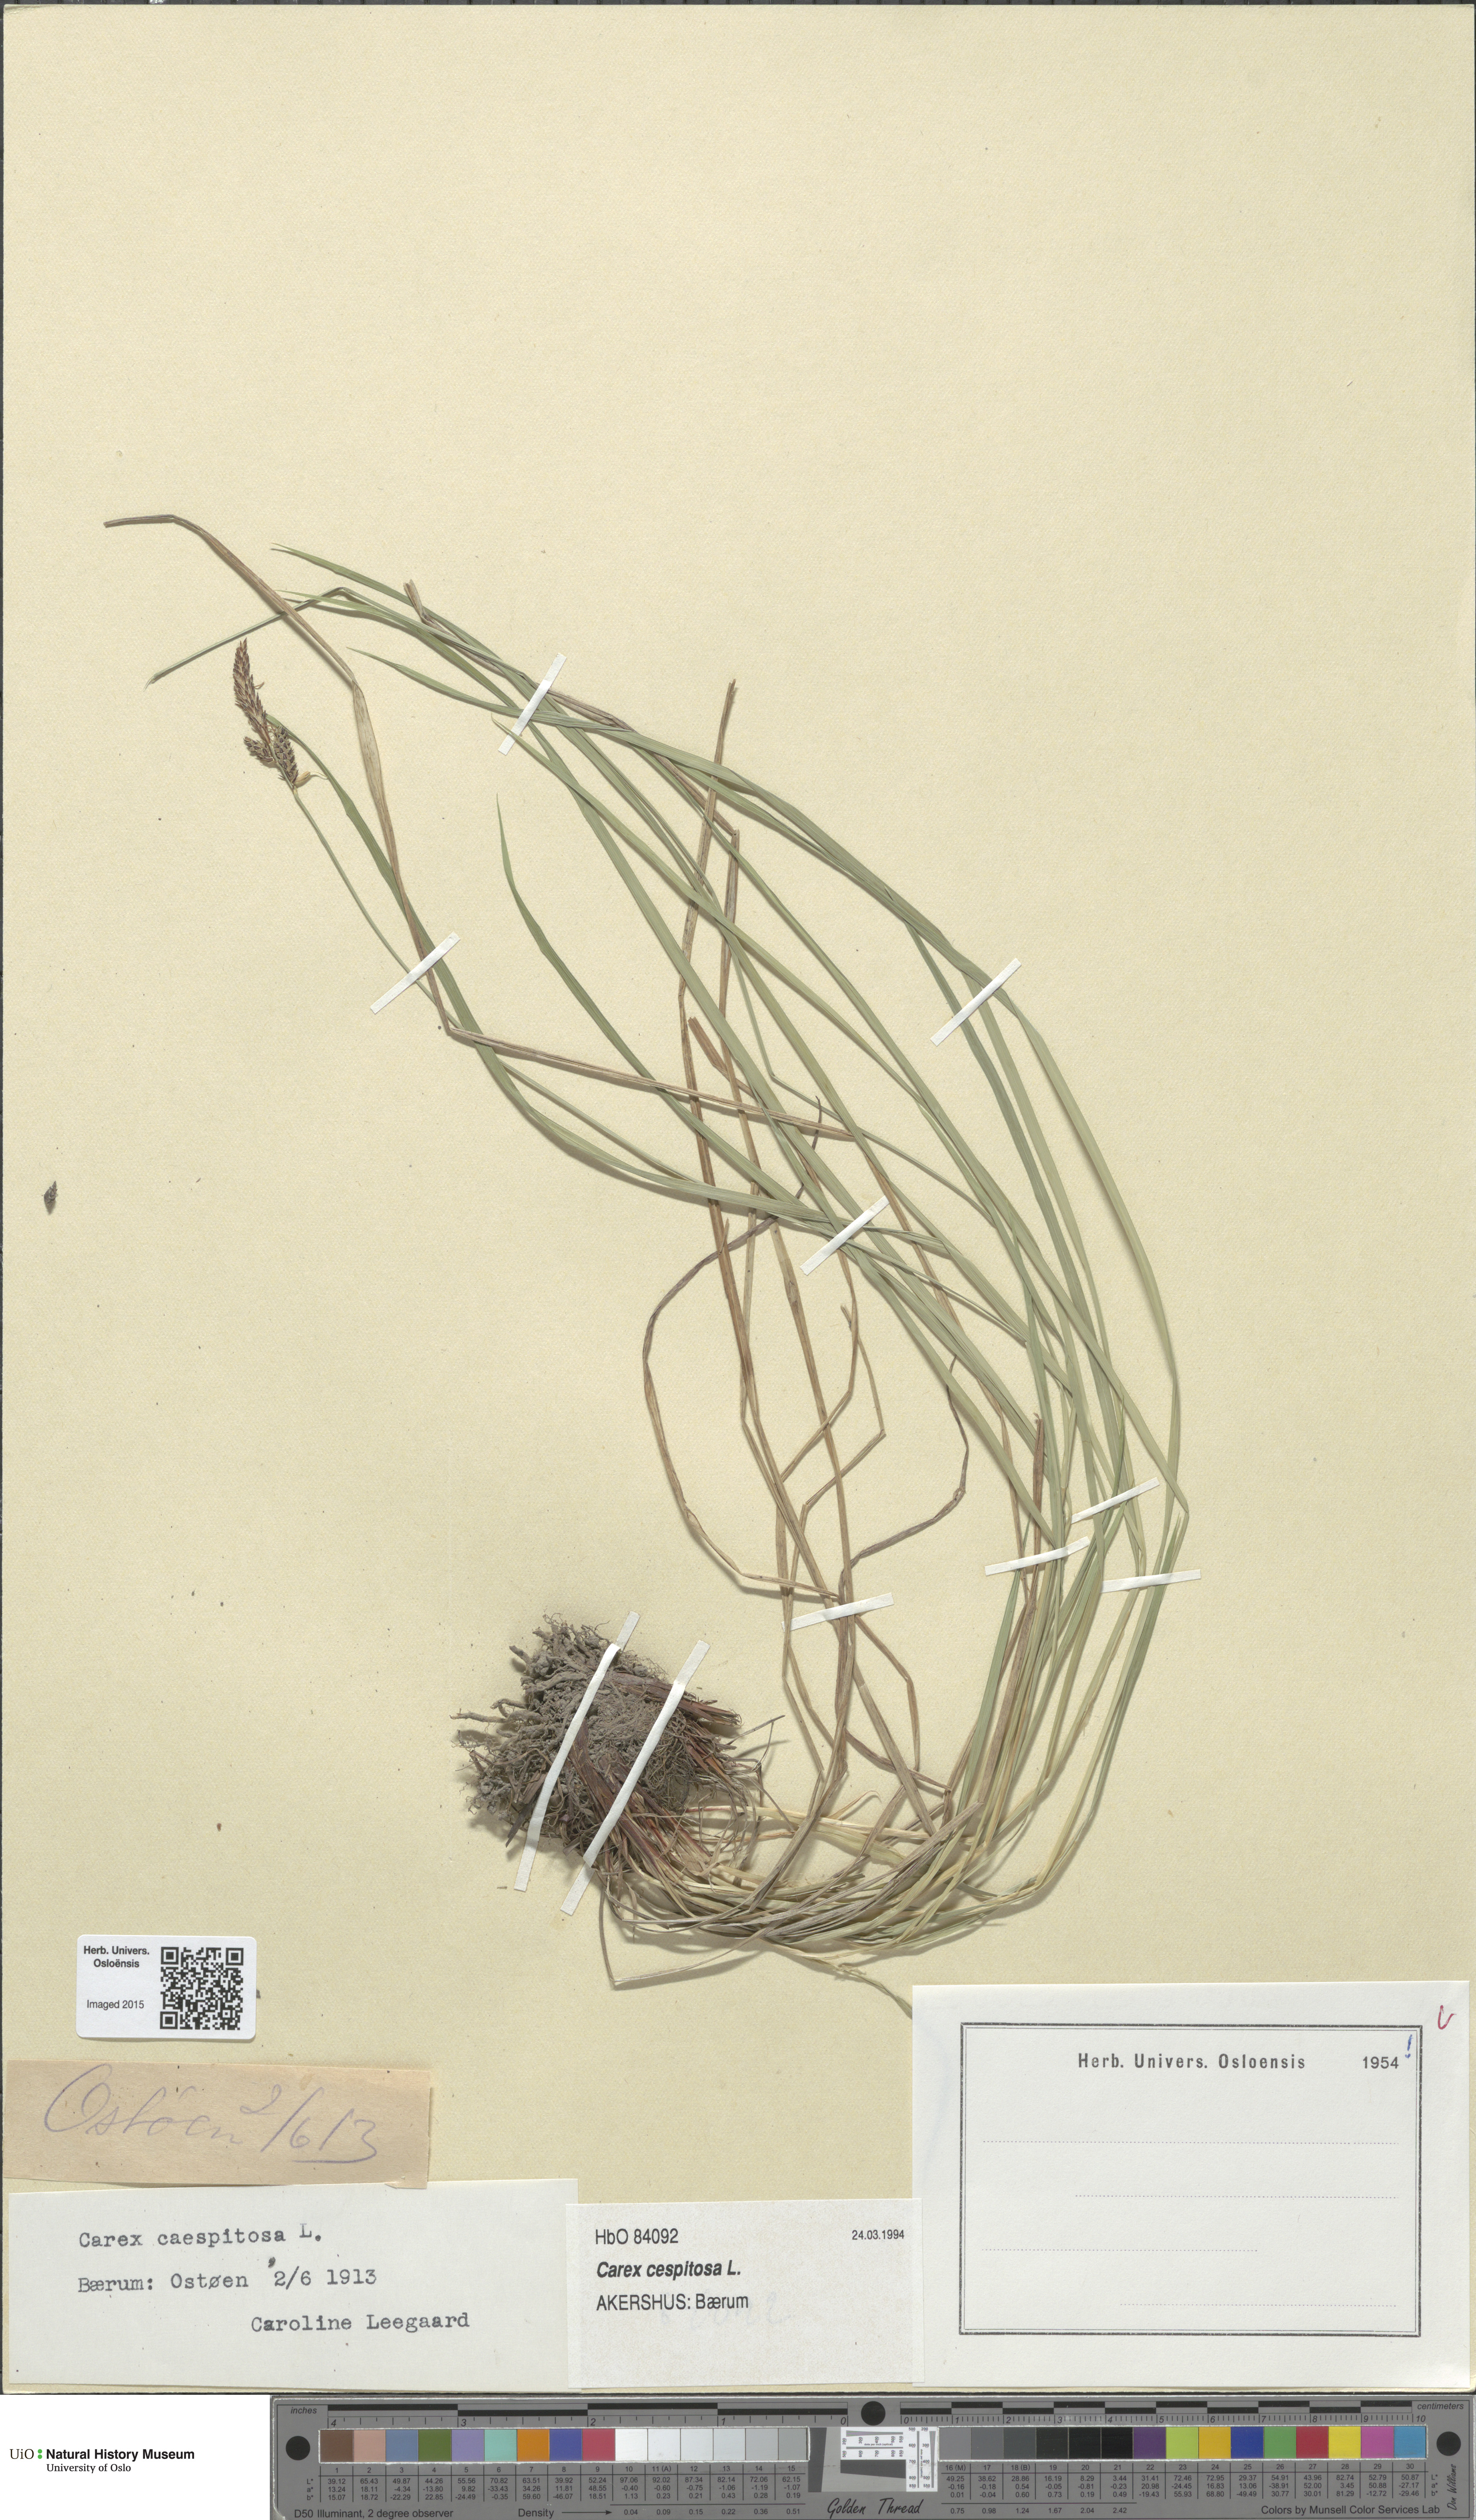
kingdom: Plantae
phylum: Tracheophyta
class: Liliopsida
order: Poales
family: Cyperaceae
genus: Carex
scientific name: Carex cespitosa
